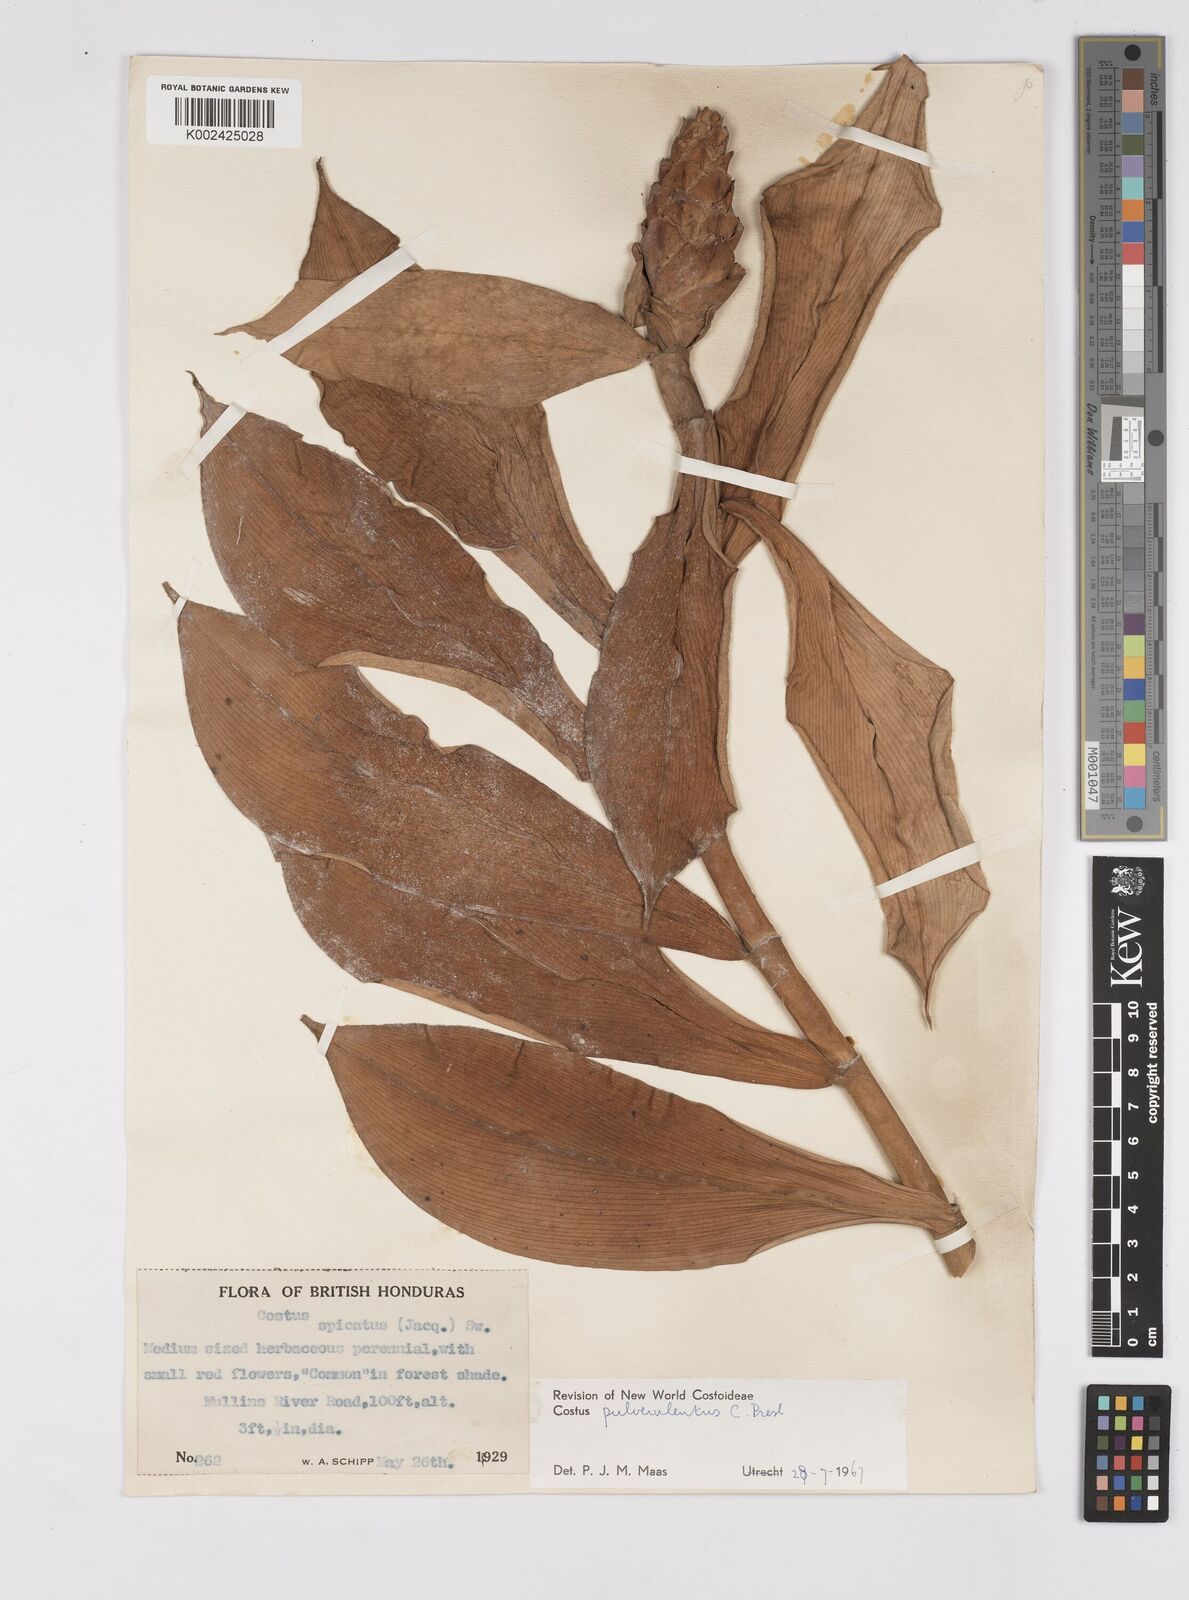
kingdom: Plantae
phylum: Tracheophyta
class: Liliopsida
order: Zingiberales
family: Costaceae
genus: Costus
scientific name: Costus pulverulentus
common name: Spiral ginger
